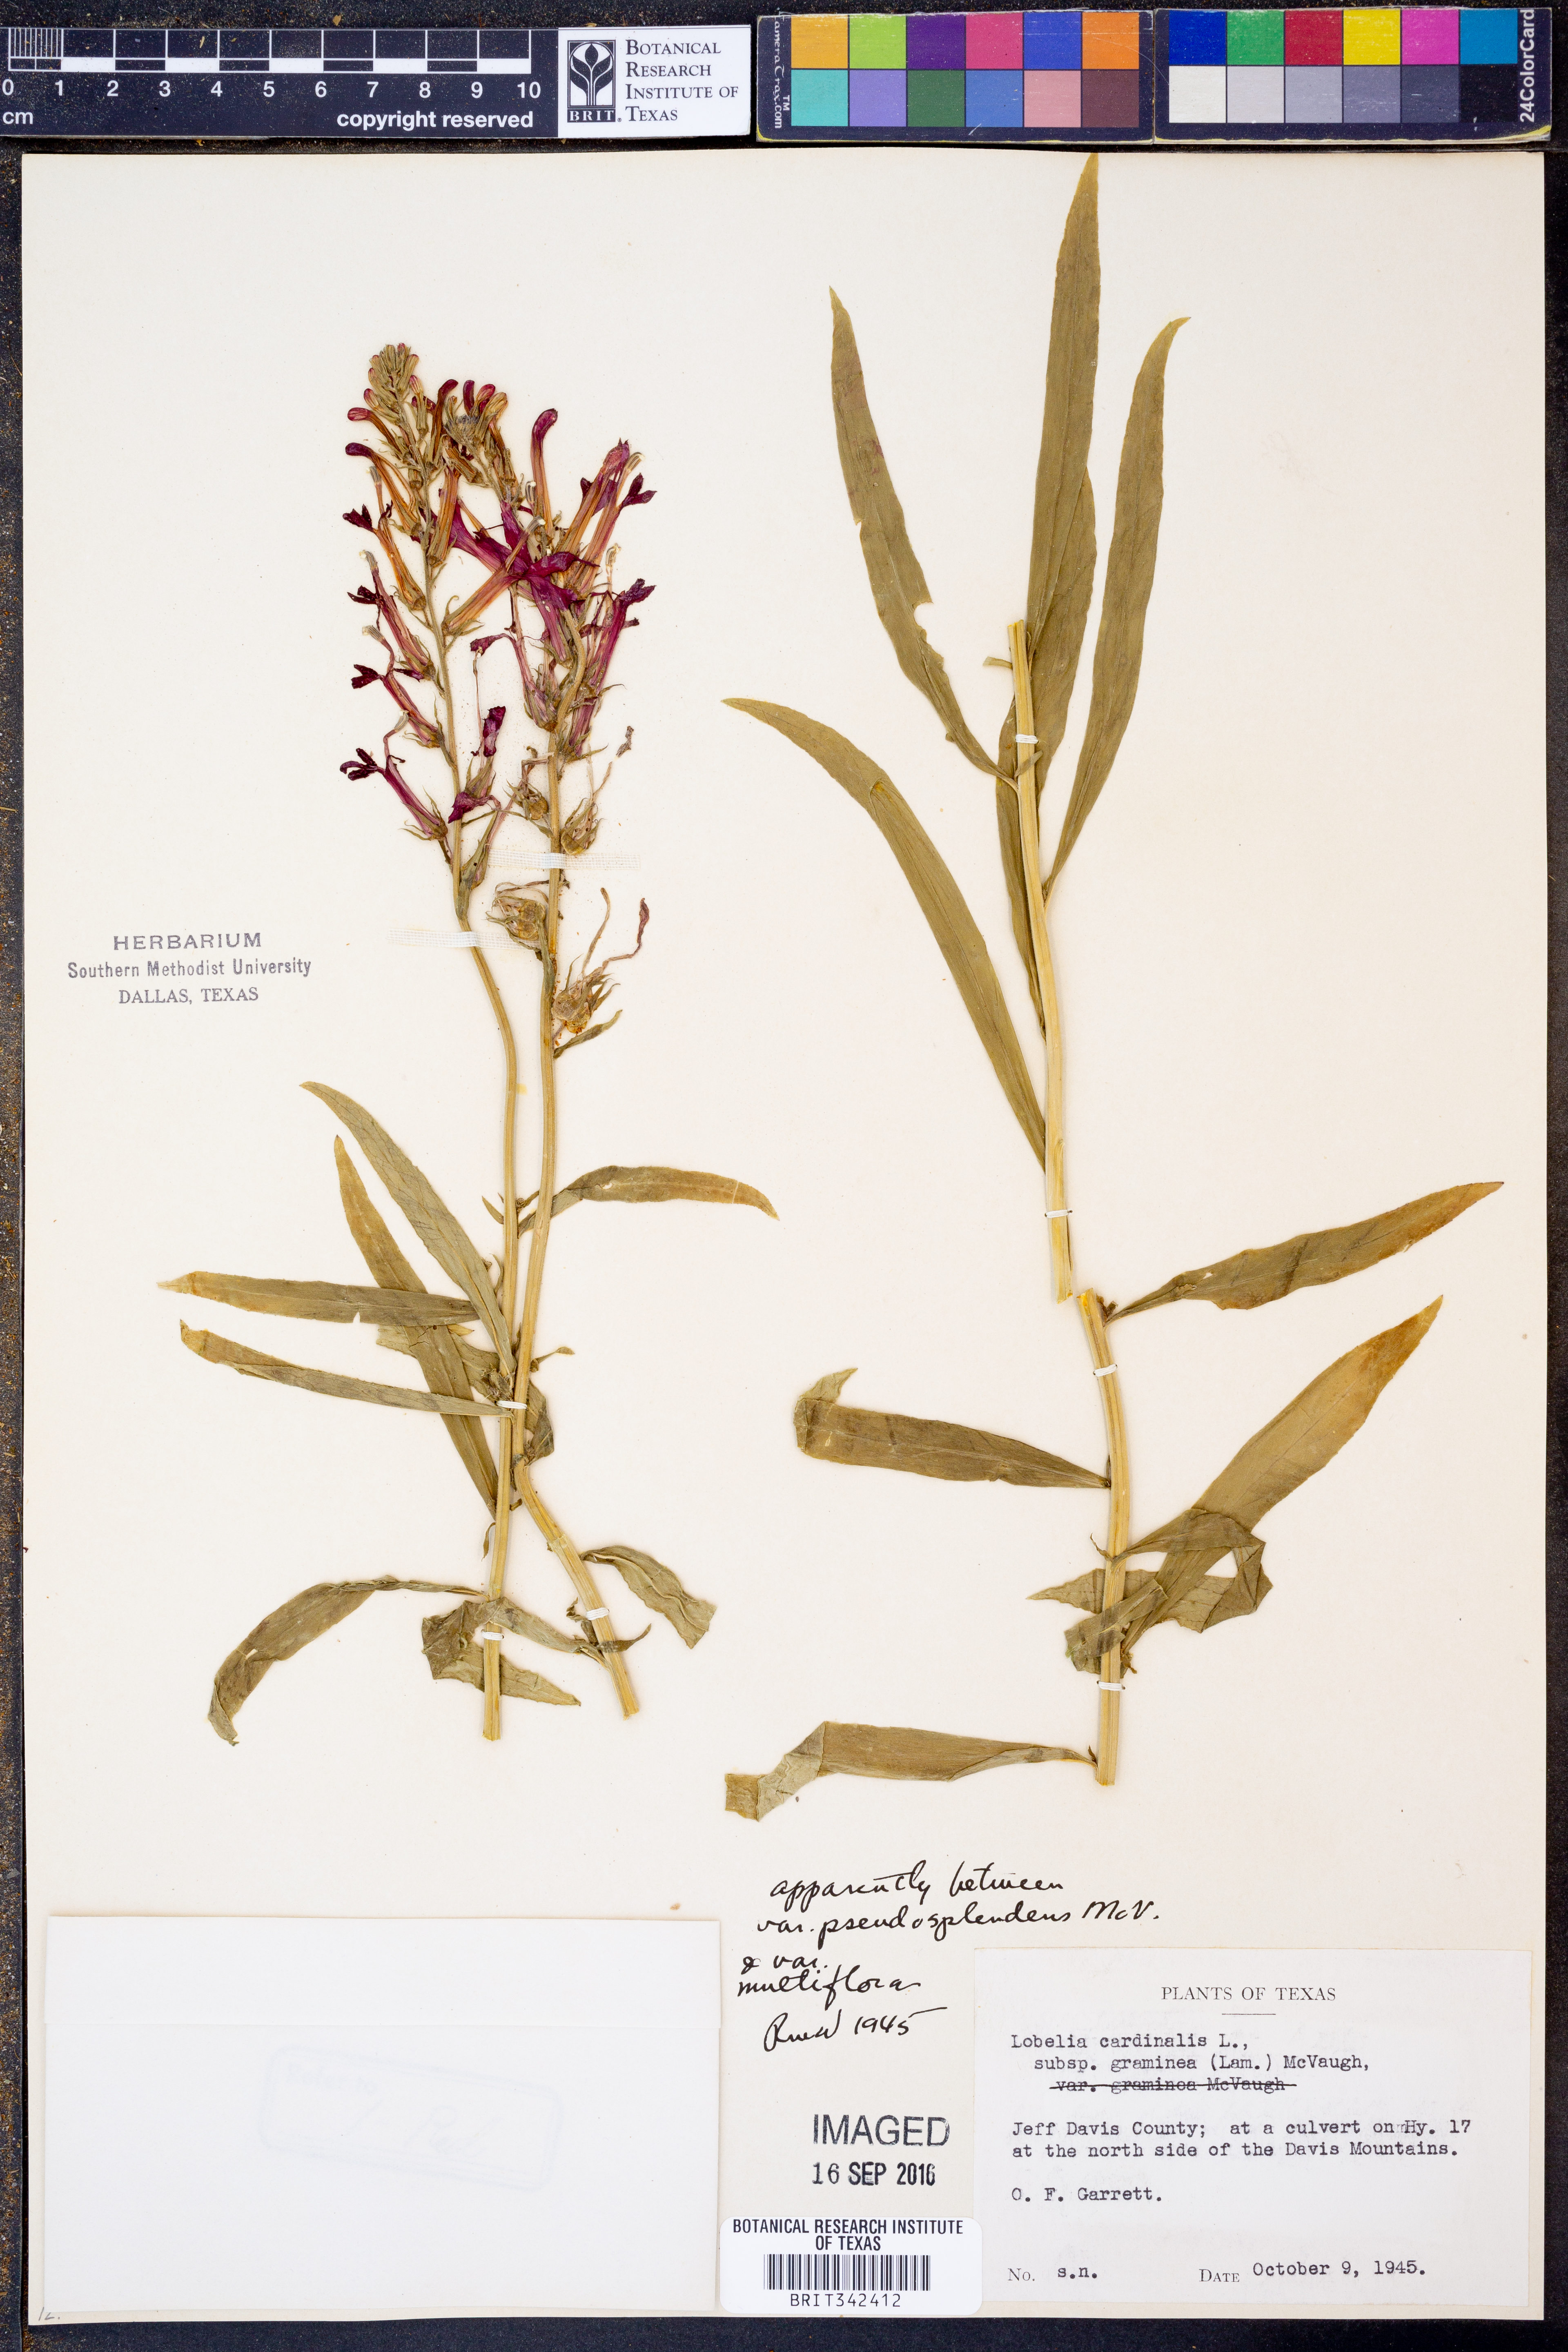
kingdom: Plantae
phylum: Tracheophyta
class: Magnoliopsida
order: Asterales
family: Campanulaceae
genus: Lobelia
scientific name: Lobelia cardinalis
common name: Cardinal flower
